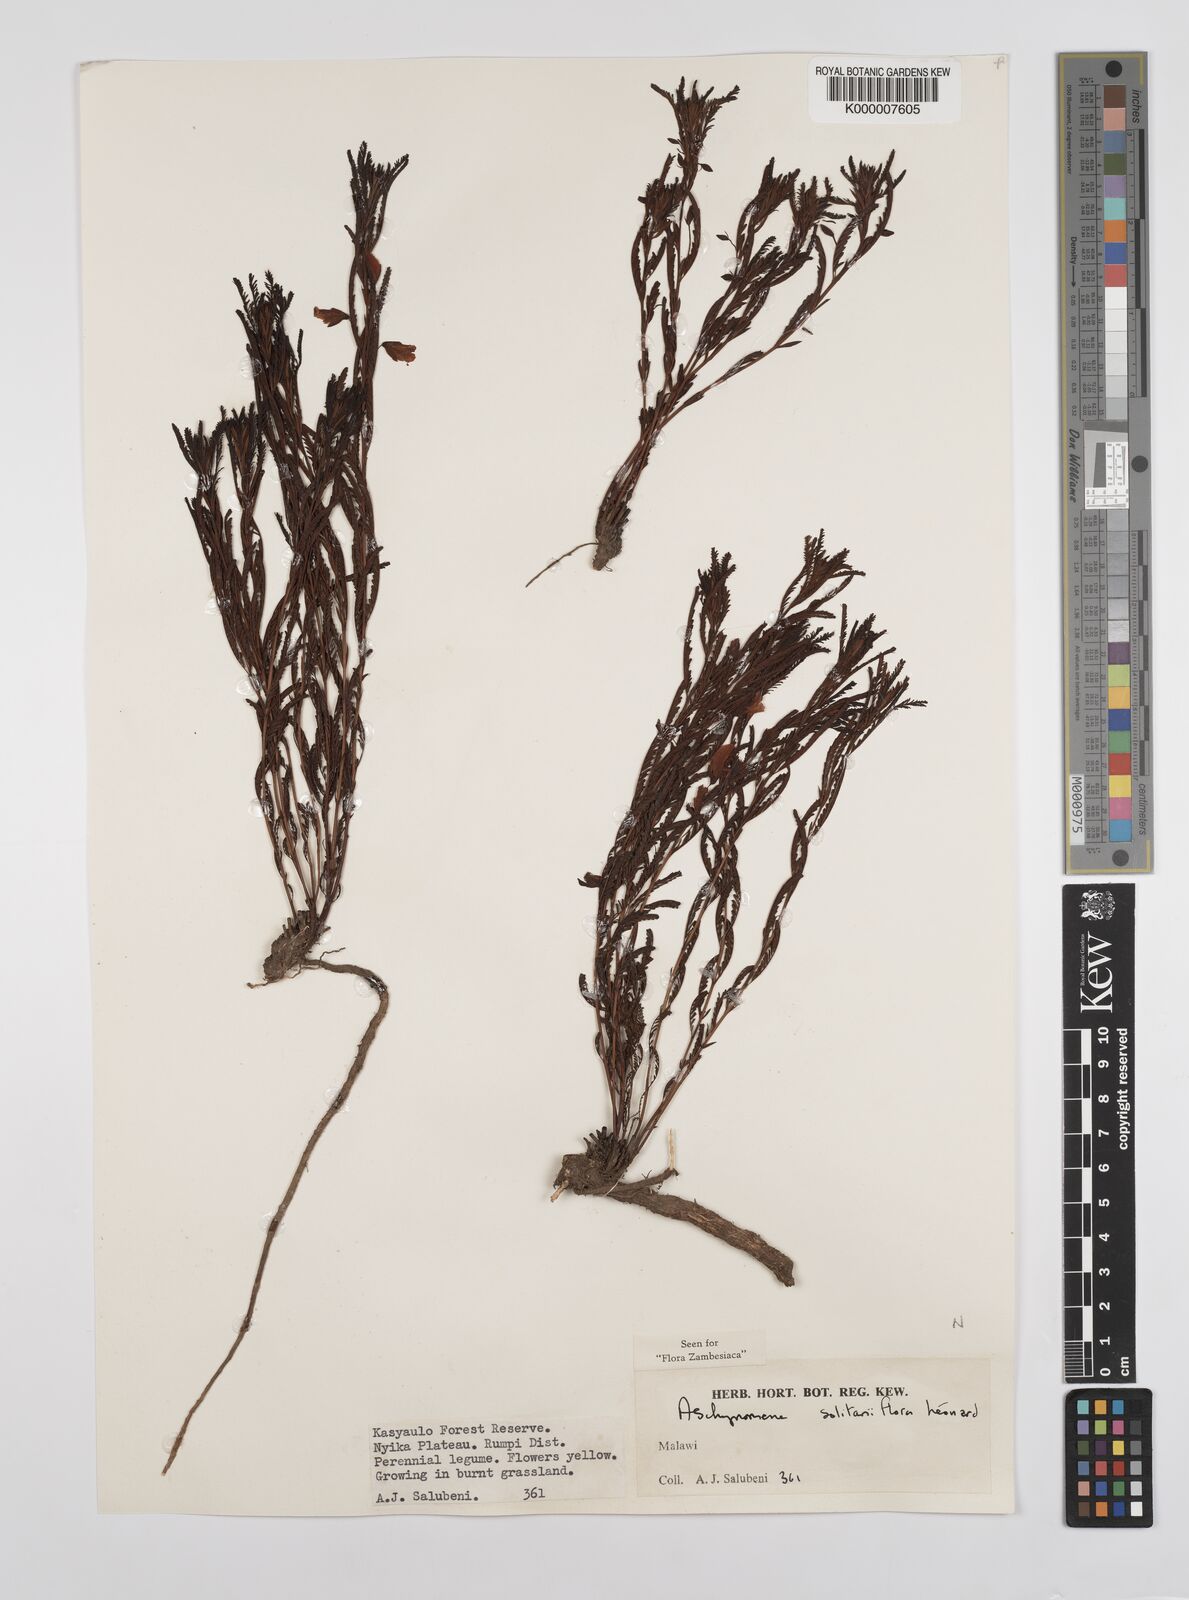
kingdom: Plantae
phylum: Tracheophyta
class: Magnoliopsida
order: Fabales
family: Fabaceae
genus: Aeschynomene
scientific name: Aeschynomene solitariiflora
